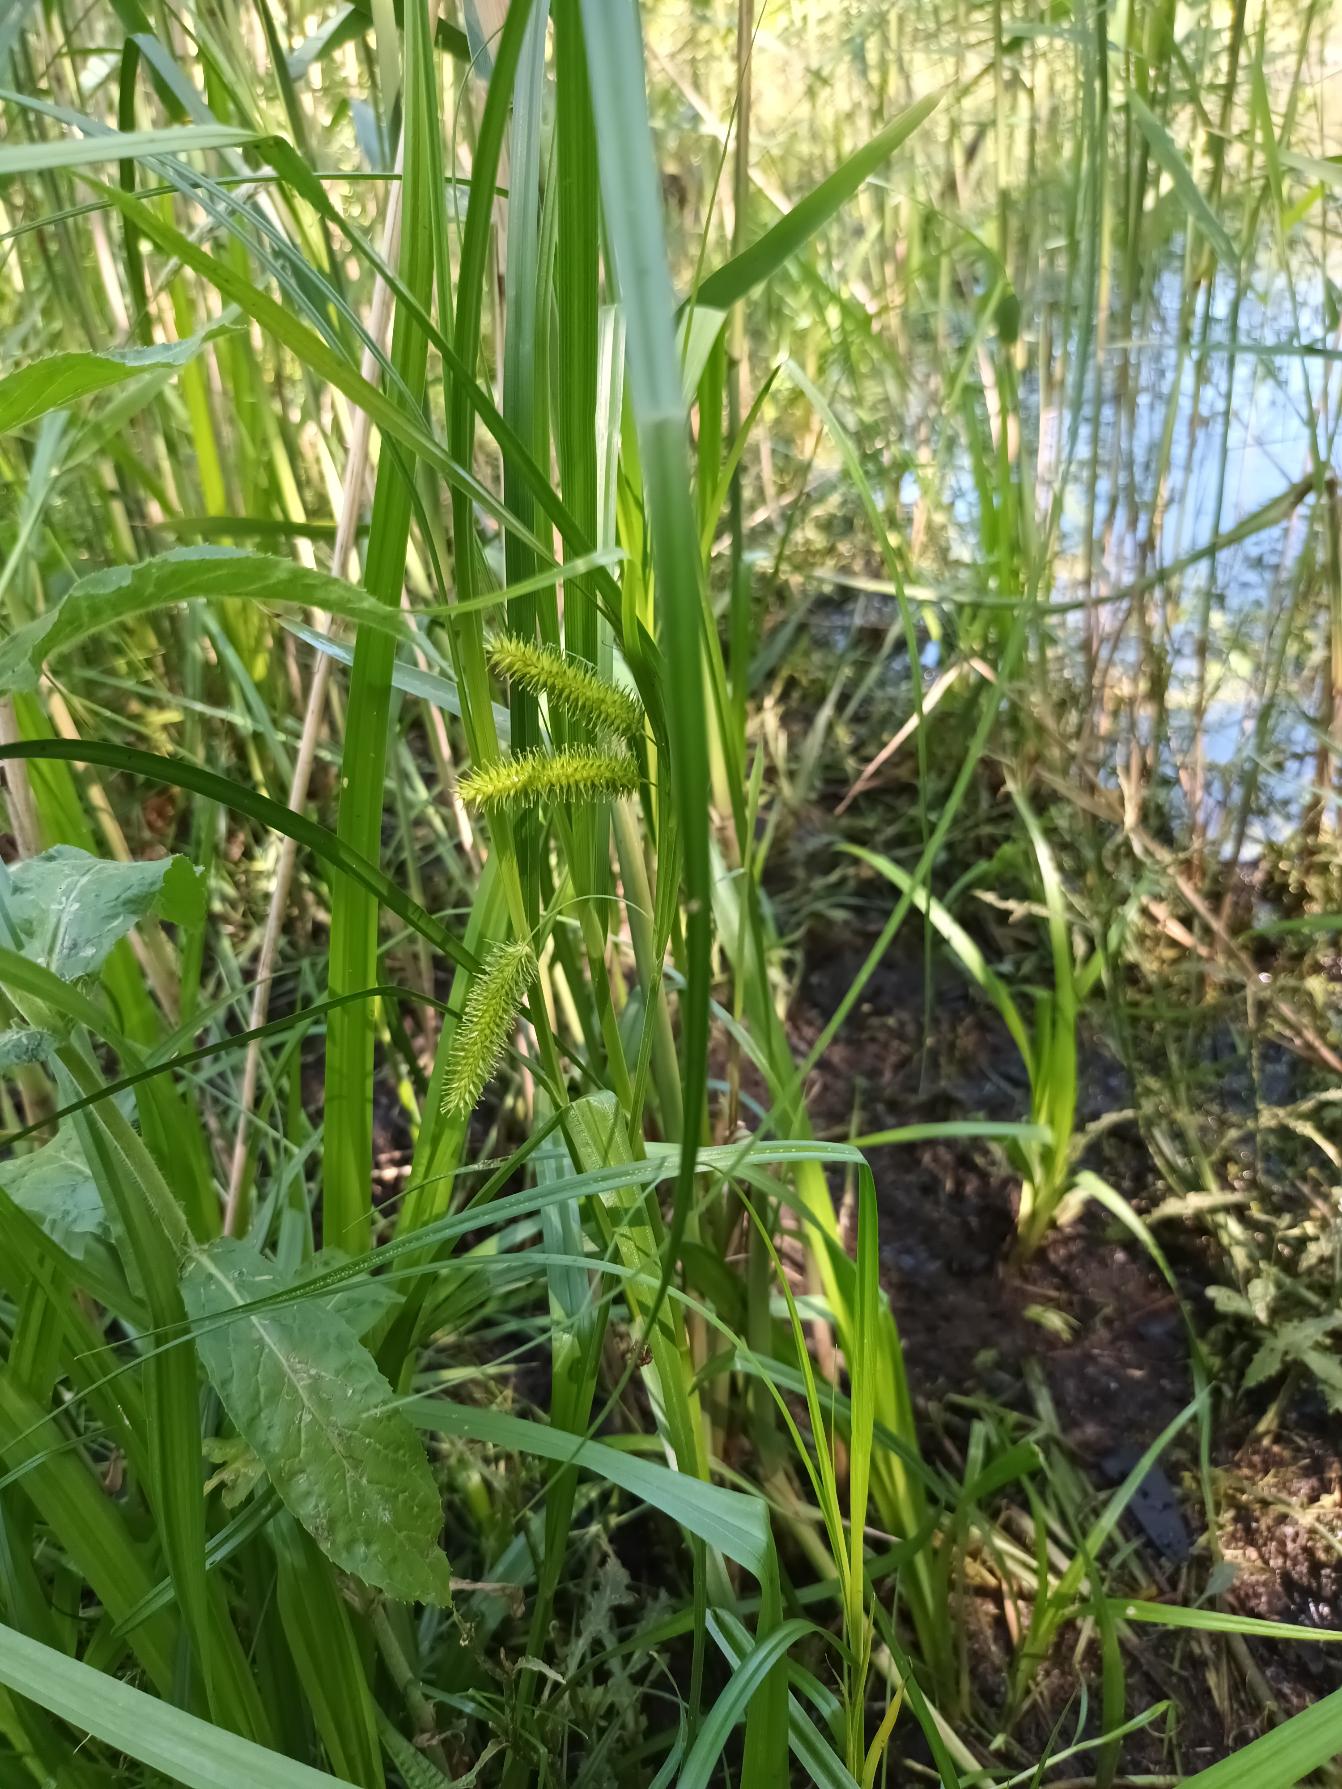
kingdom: Plantae
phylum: Tracheophyta
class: Liliopsida
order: Poales
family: Cyperaceae
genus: Carex
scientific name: Carex pseudocyperus
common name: Knippe-star
